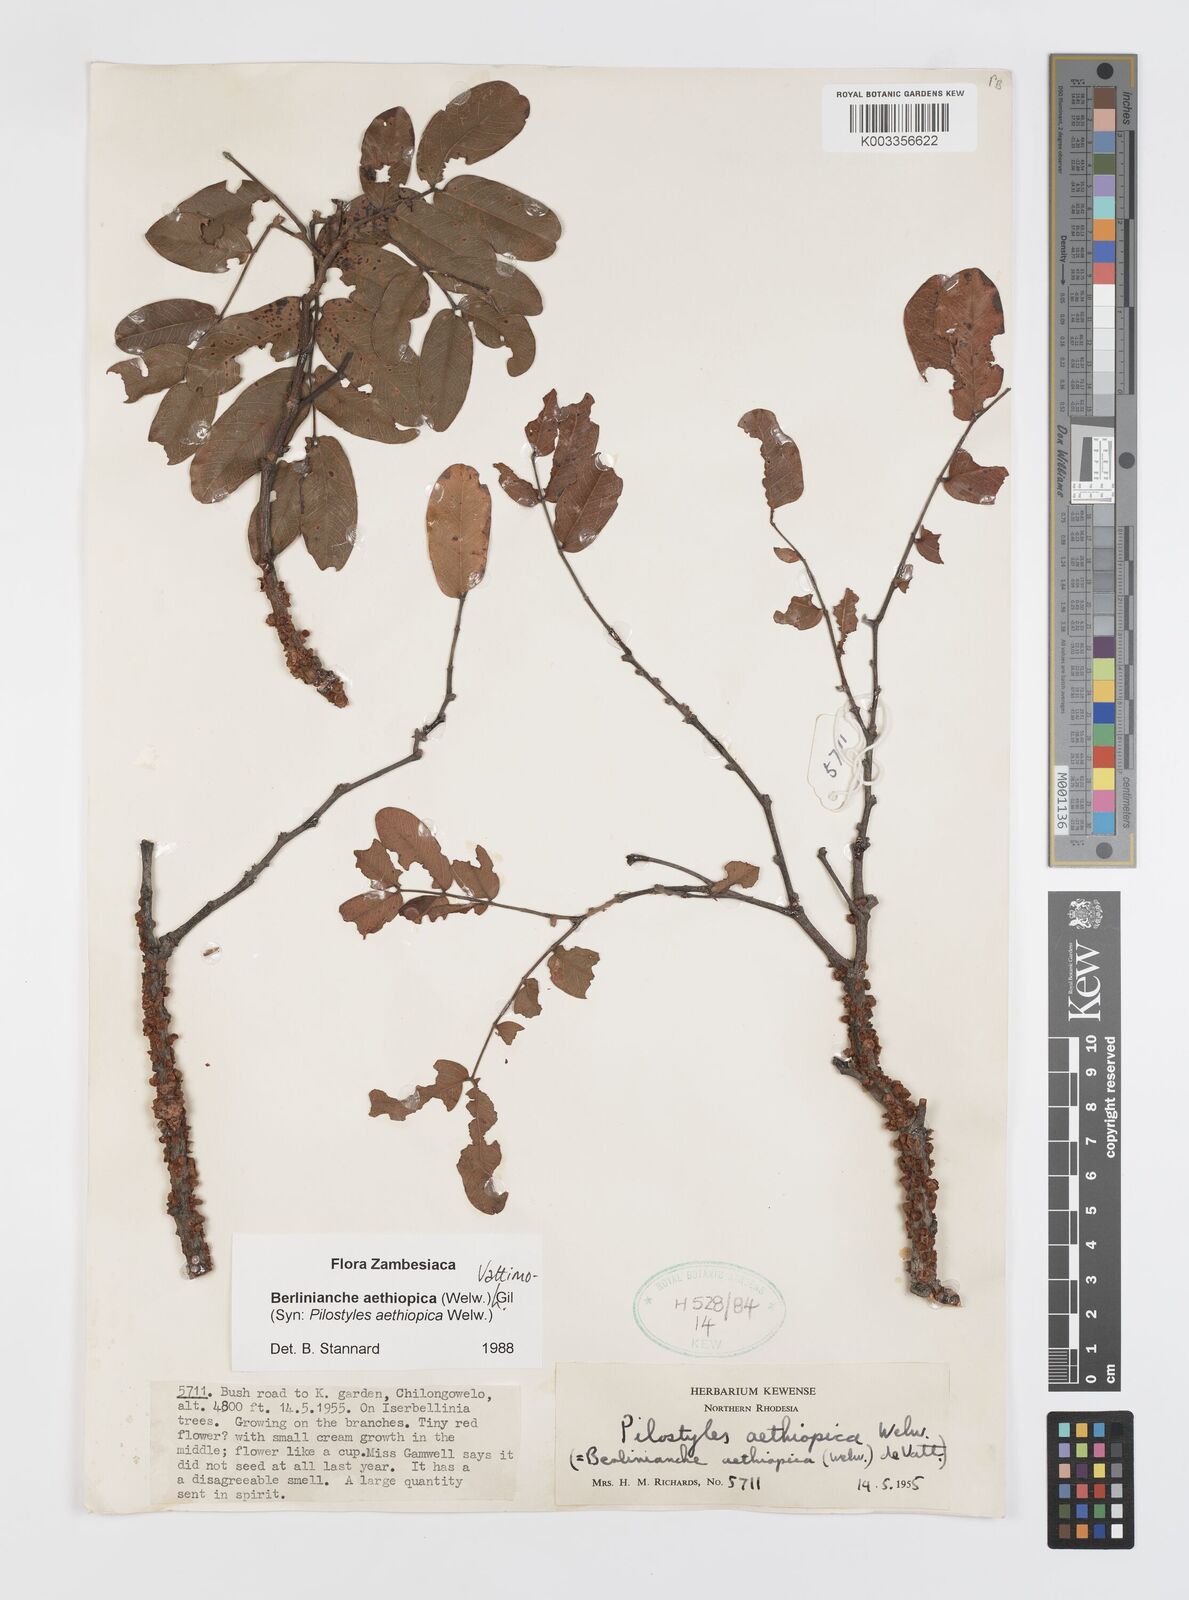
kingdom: Plantae
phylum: Tracheophyta
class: Magnoliopsida
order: Cucurbitales
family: Apodanthaceae
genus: Pilostyles
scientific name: Pilostyles aethiopica
